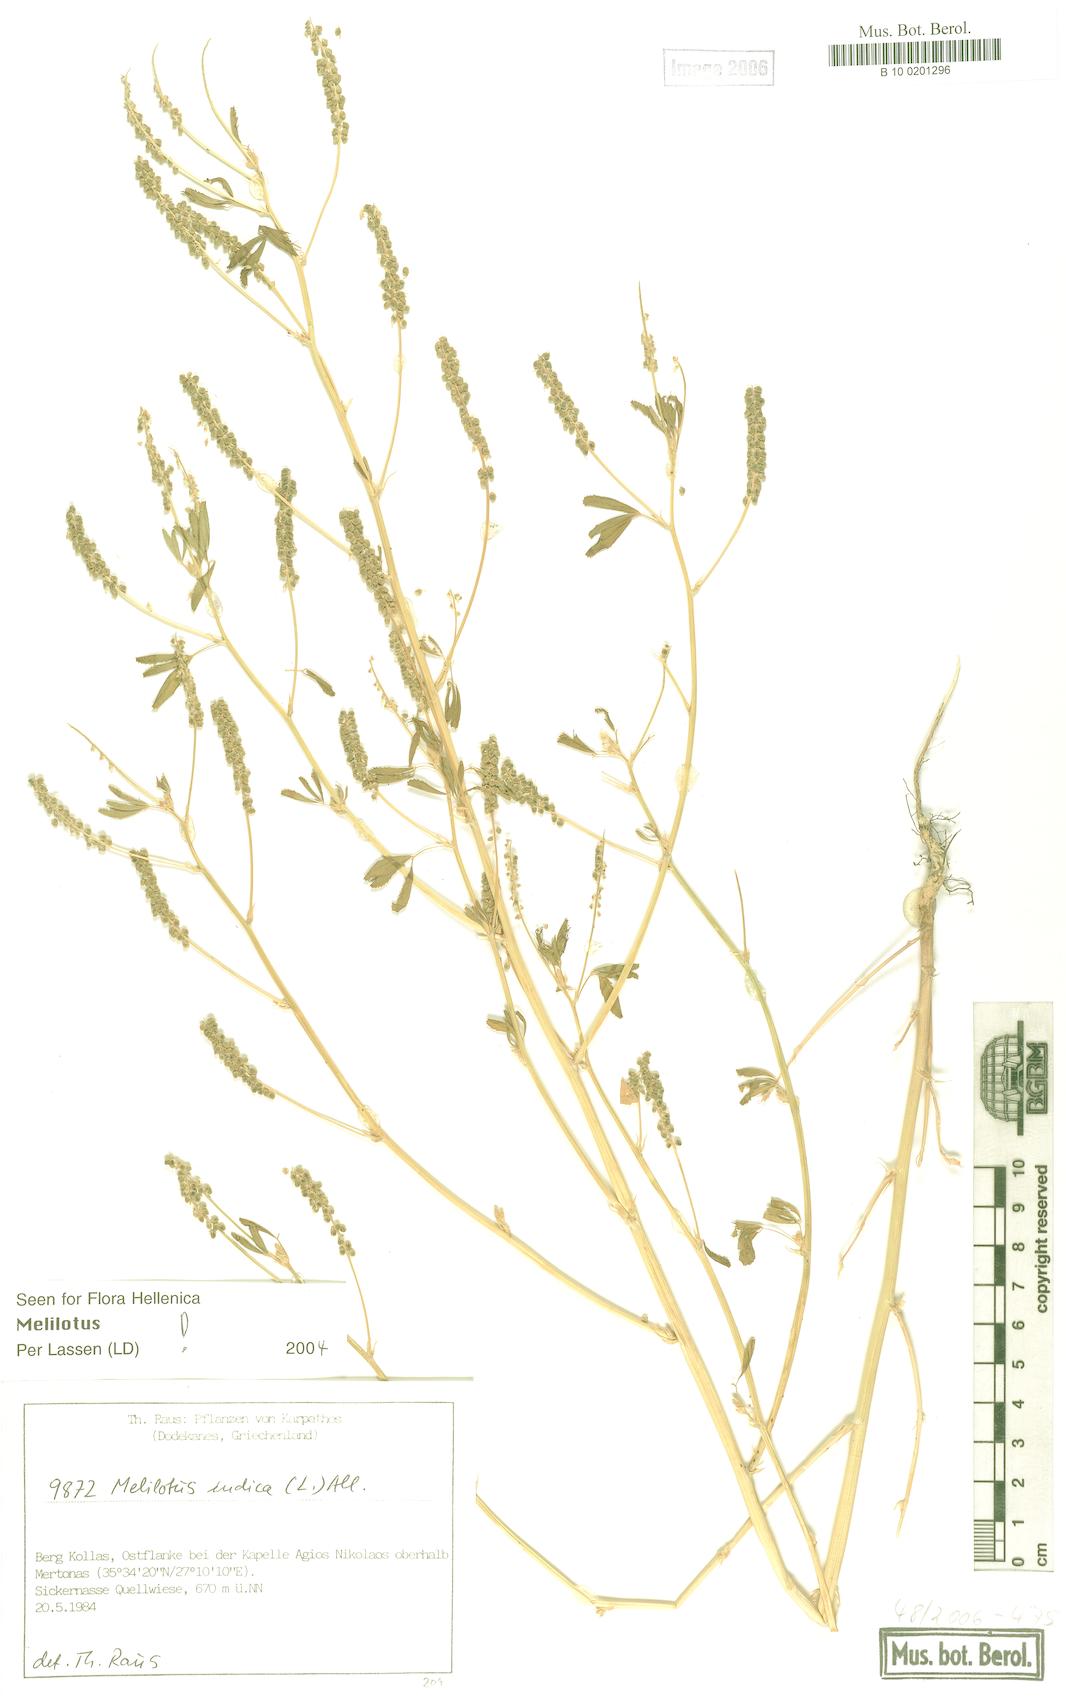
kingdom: Plantae
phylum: Tracheophyta
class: Magnoliopsida
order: Fabales
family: Fabaceae
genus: Melilotus
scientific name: Melilotus indicus
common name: Small melilot
